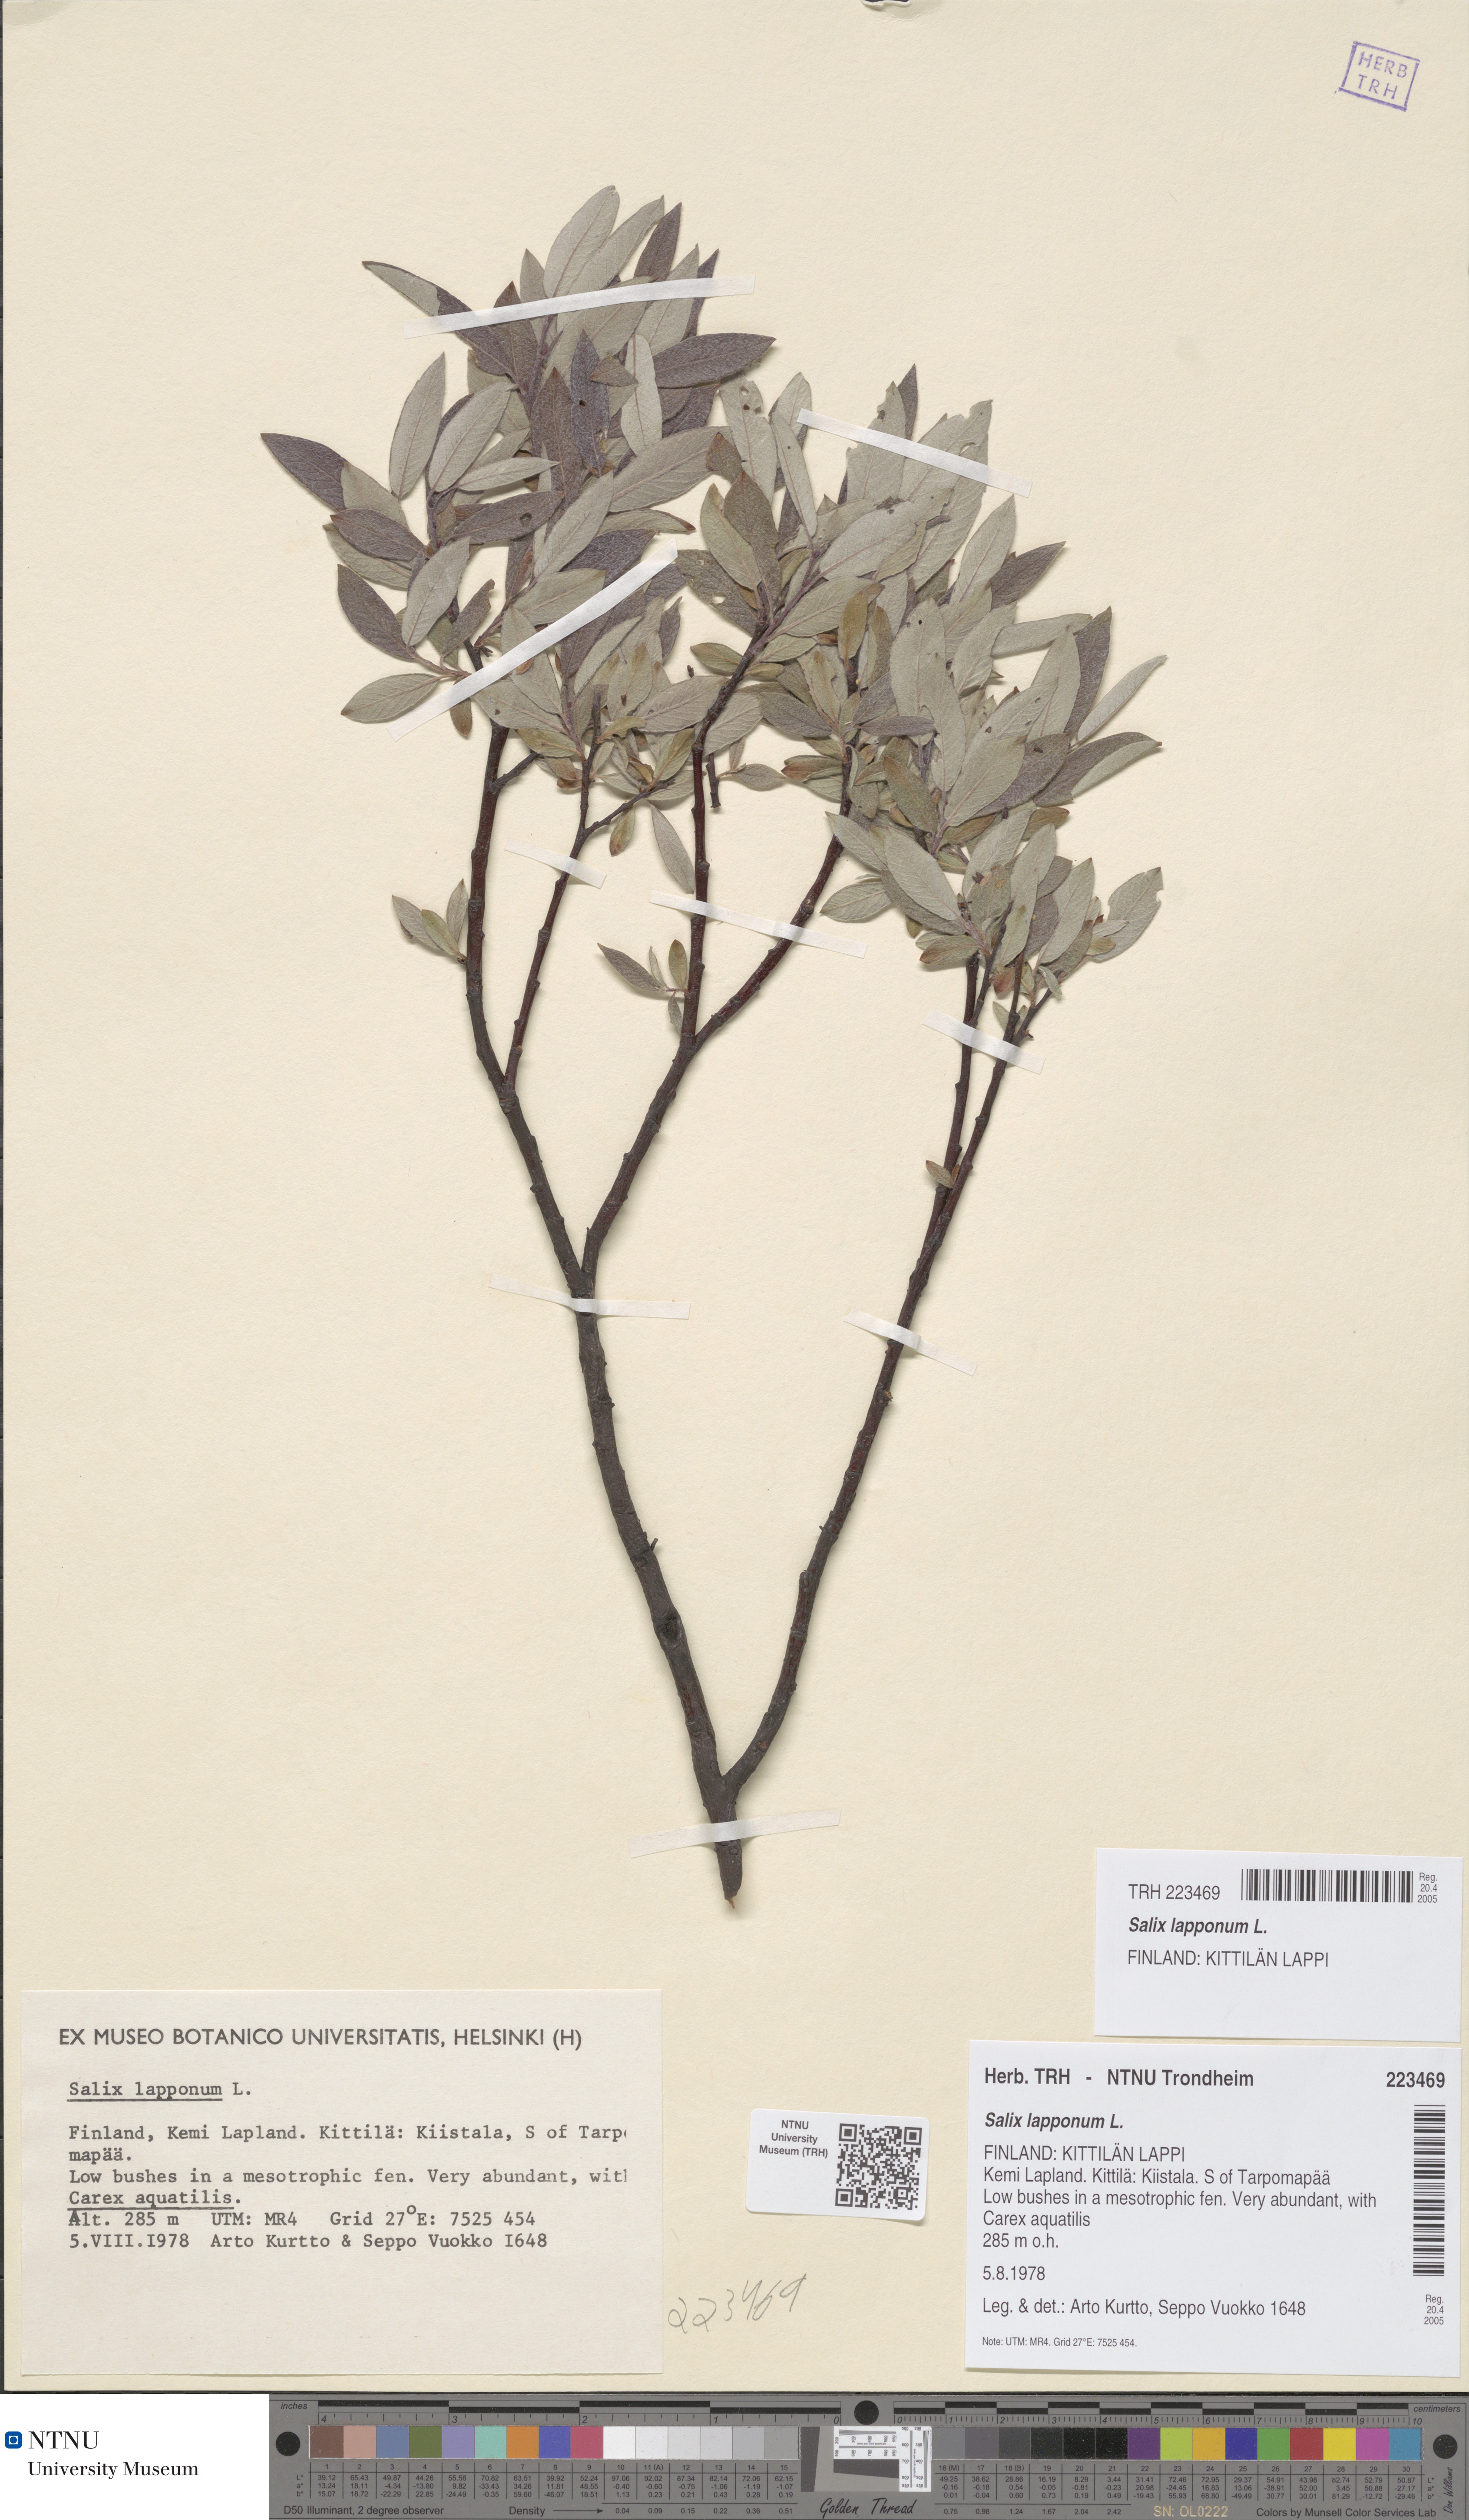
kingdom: Plantae
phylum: Tracheophyta
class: Magnoliopsida
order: Malpighiales
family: Salicaceae
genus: Salix
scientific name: Salix lapponum
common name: Downy willow
